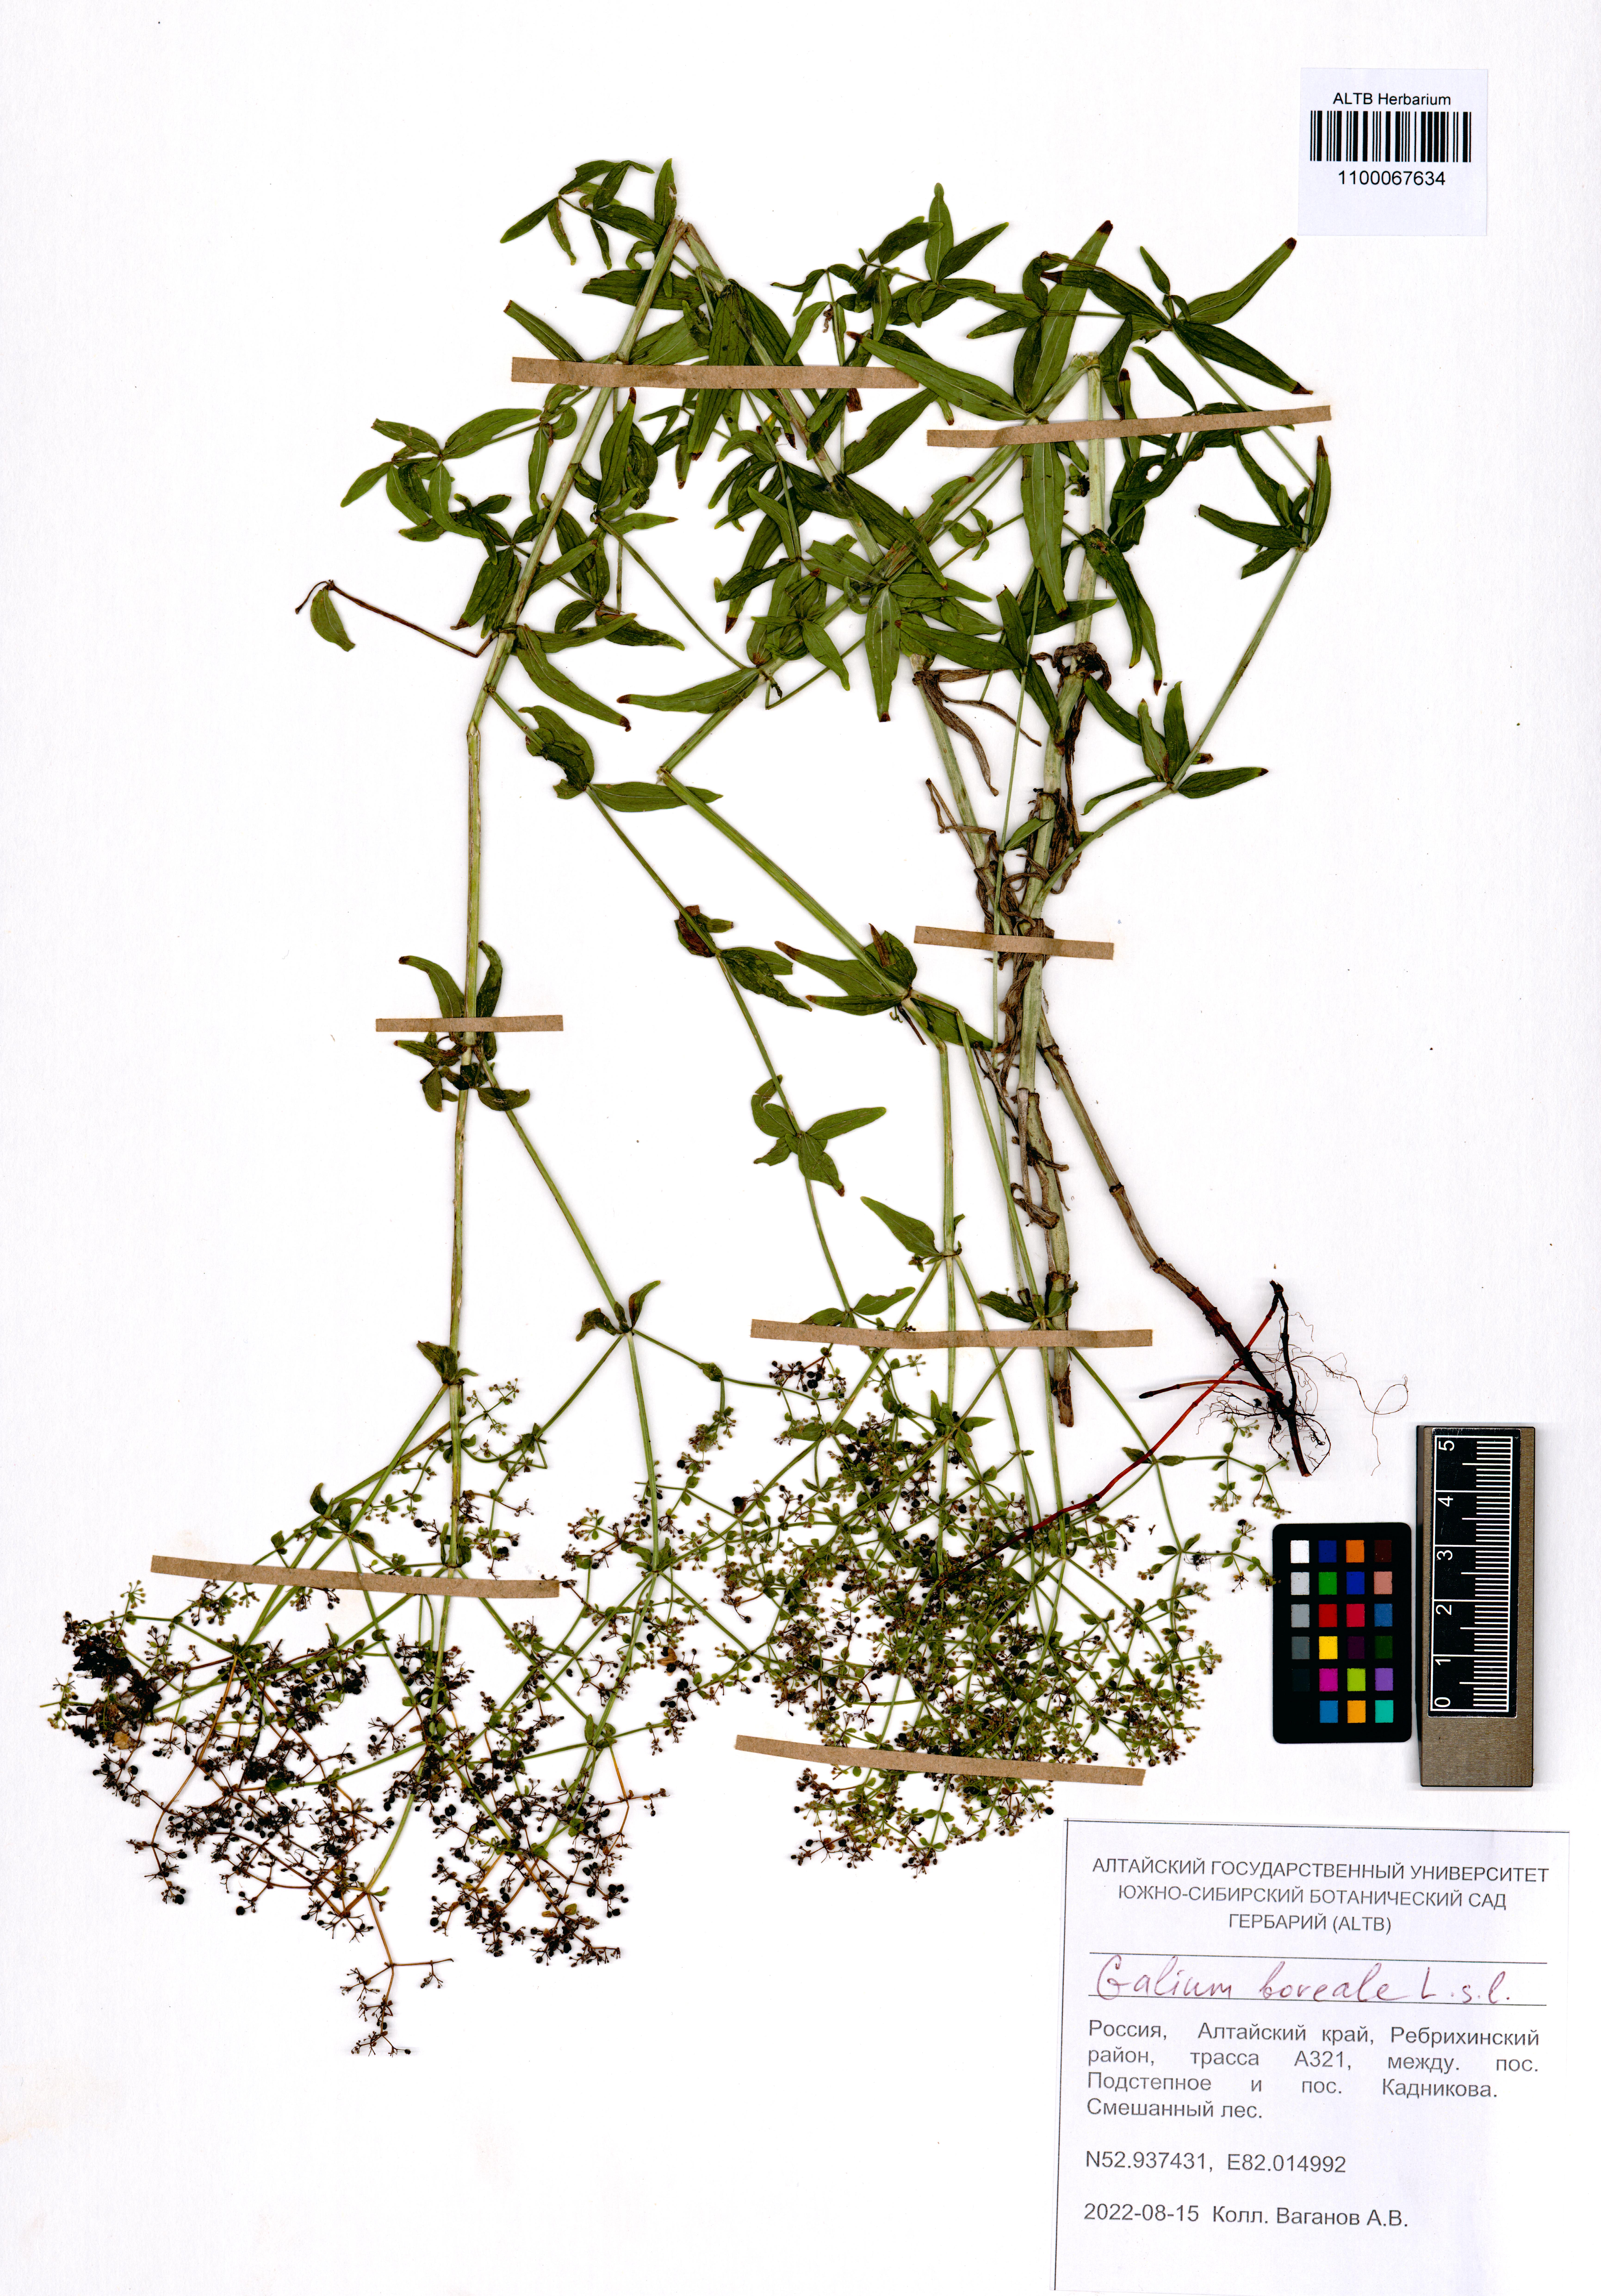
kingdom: Plantae
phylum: Tracheophyta
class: Magnoliopsida
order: Gentianales
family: Rubiaceae
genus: Galium
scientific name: Galium boreale
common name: Northern bedstraw
